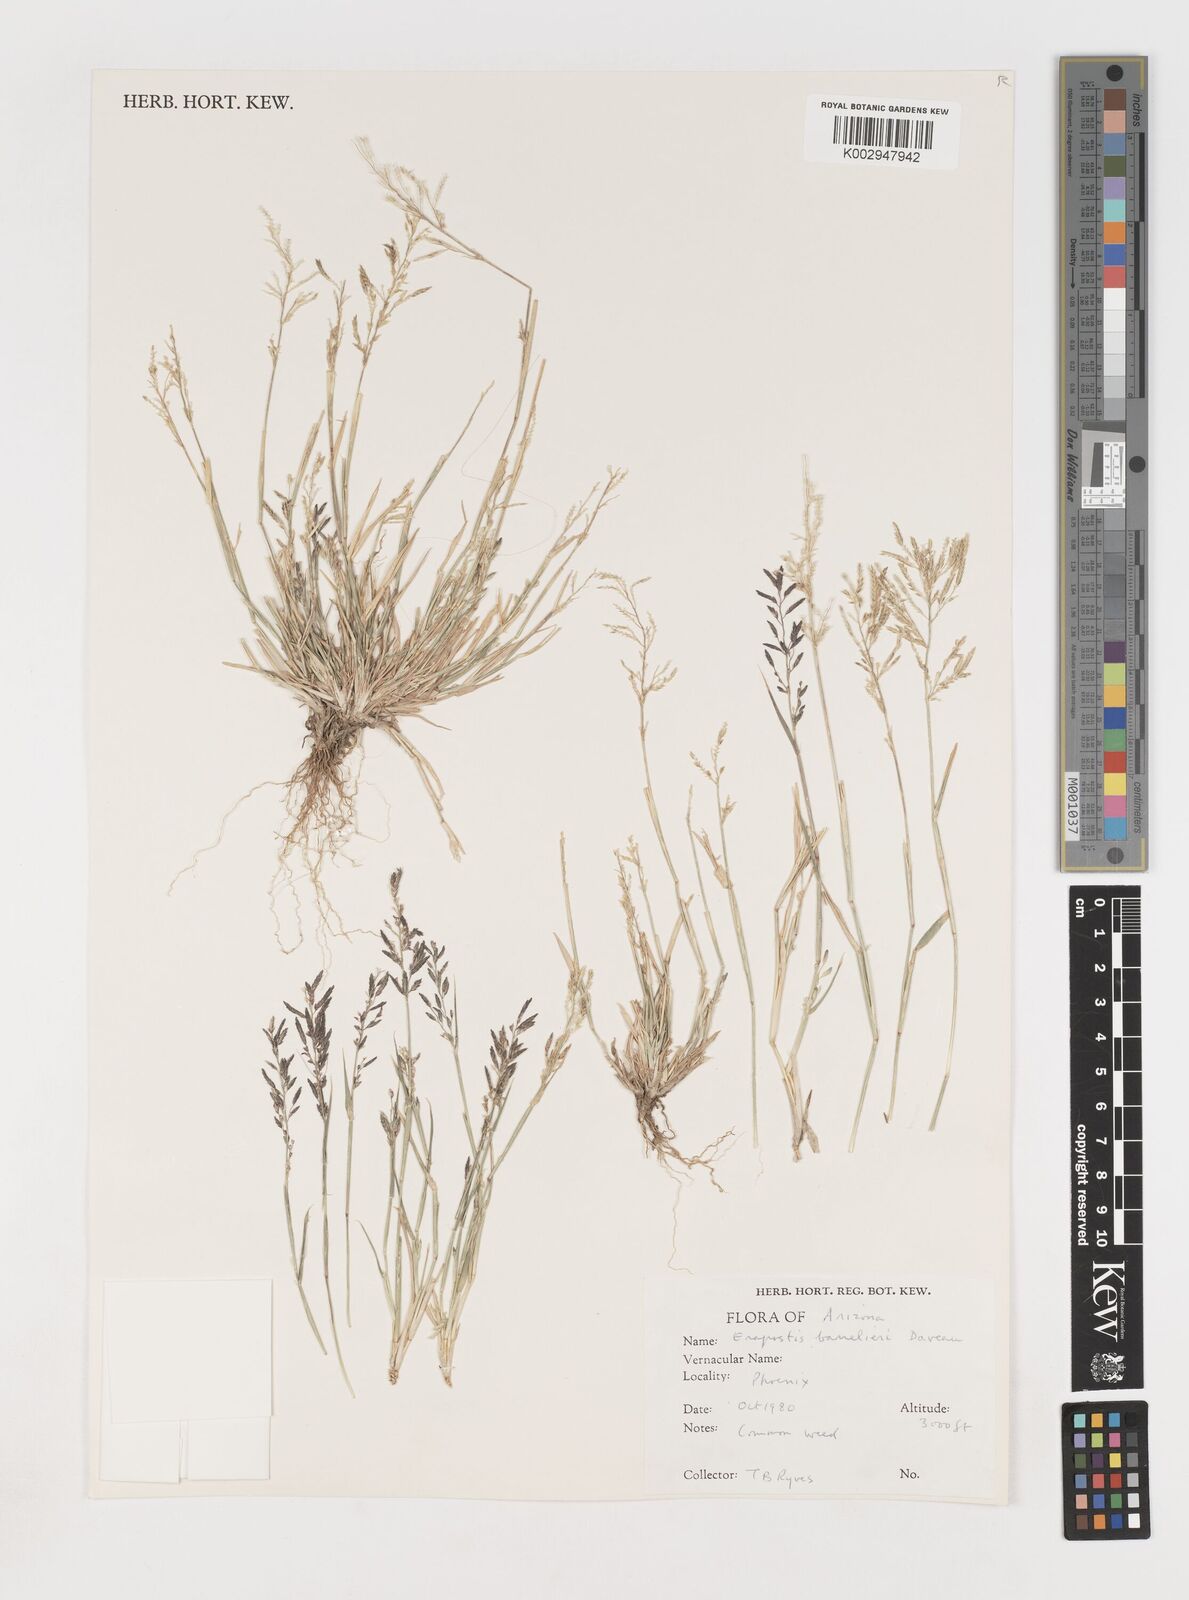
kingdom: Plantae
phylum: Tracheophyta
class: Liliopsida
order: Poales
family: Poaceae
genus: Eragrostis
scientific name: Eragrostis barrelieri
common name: Mediterranean lovegrass
